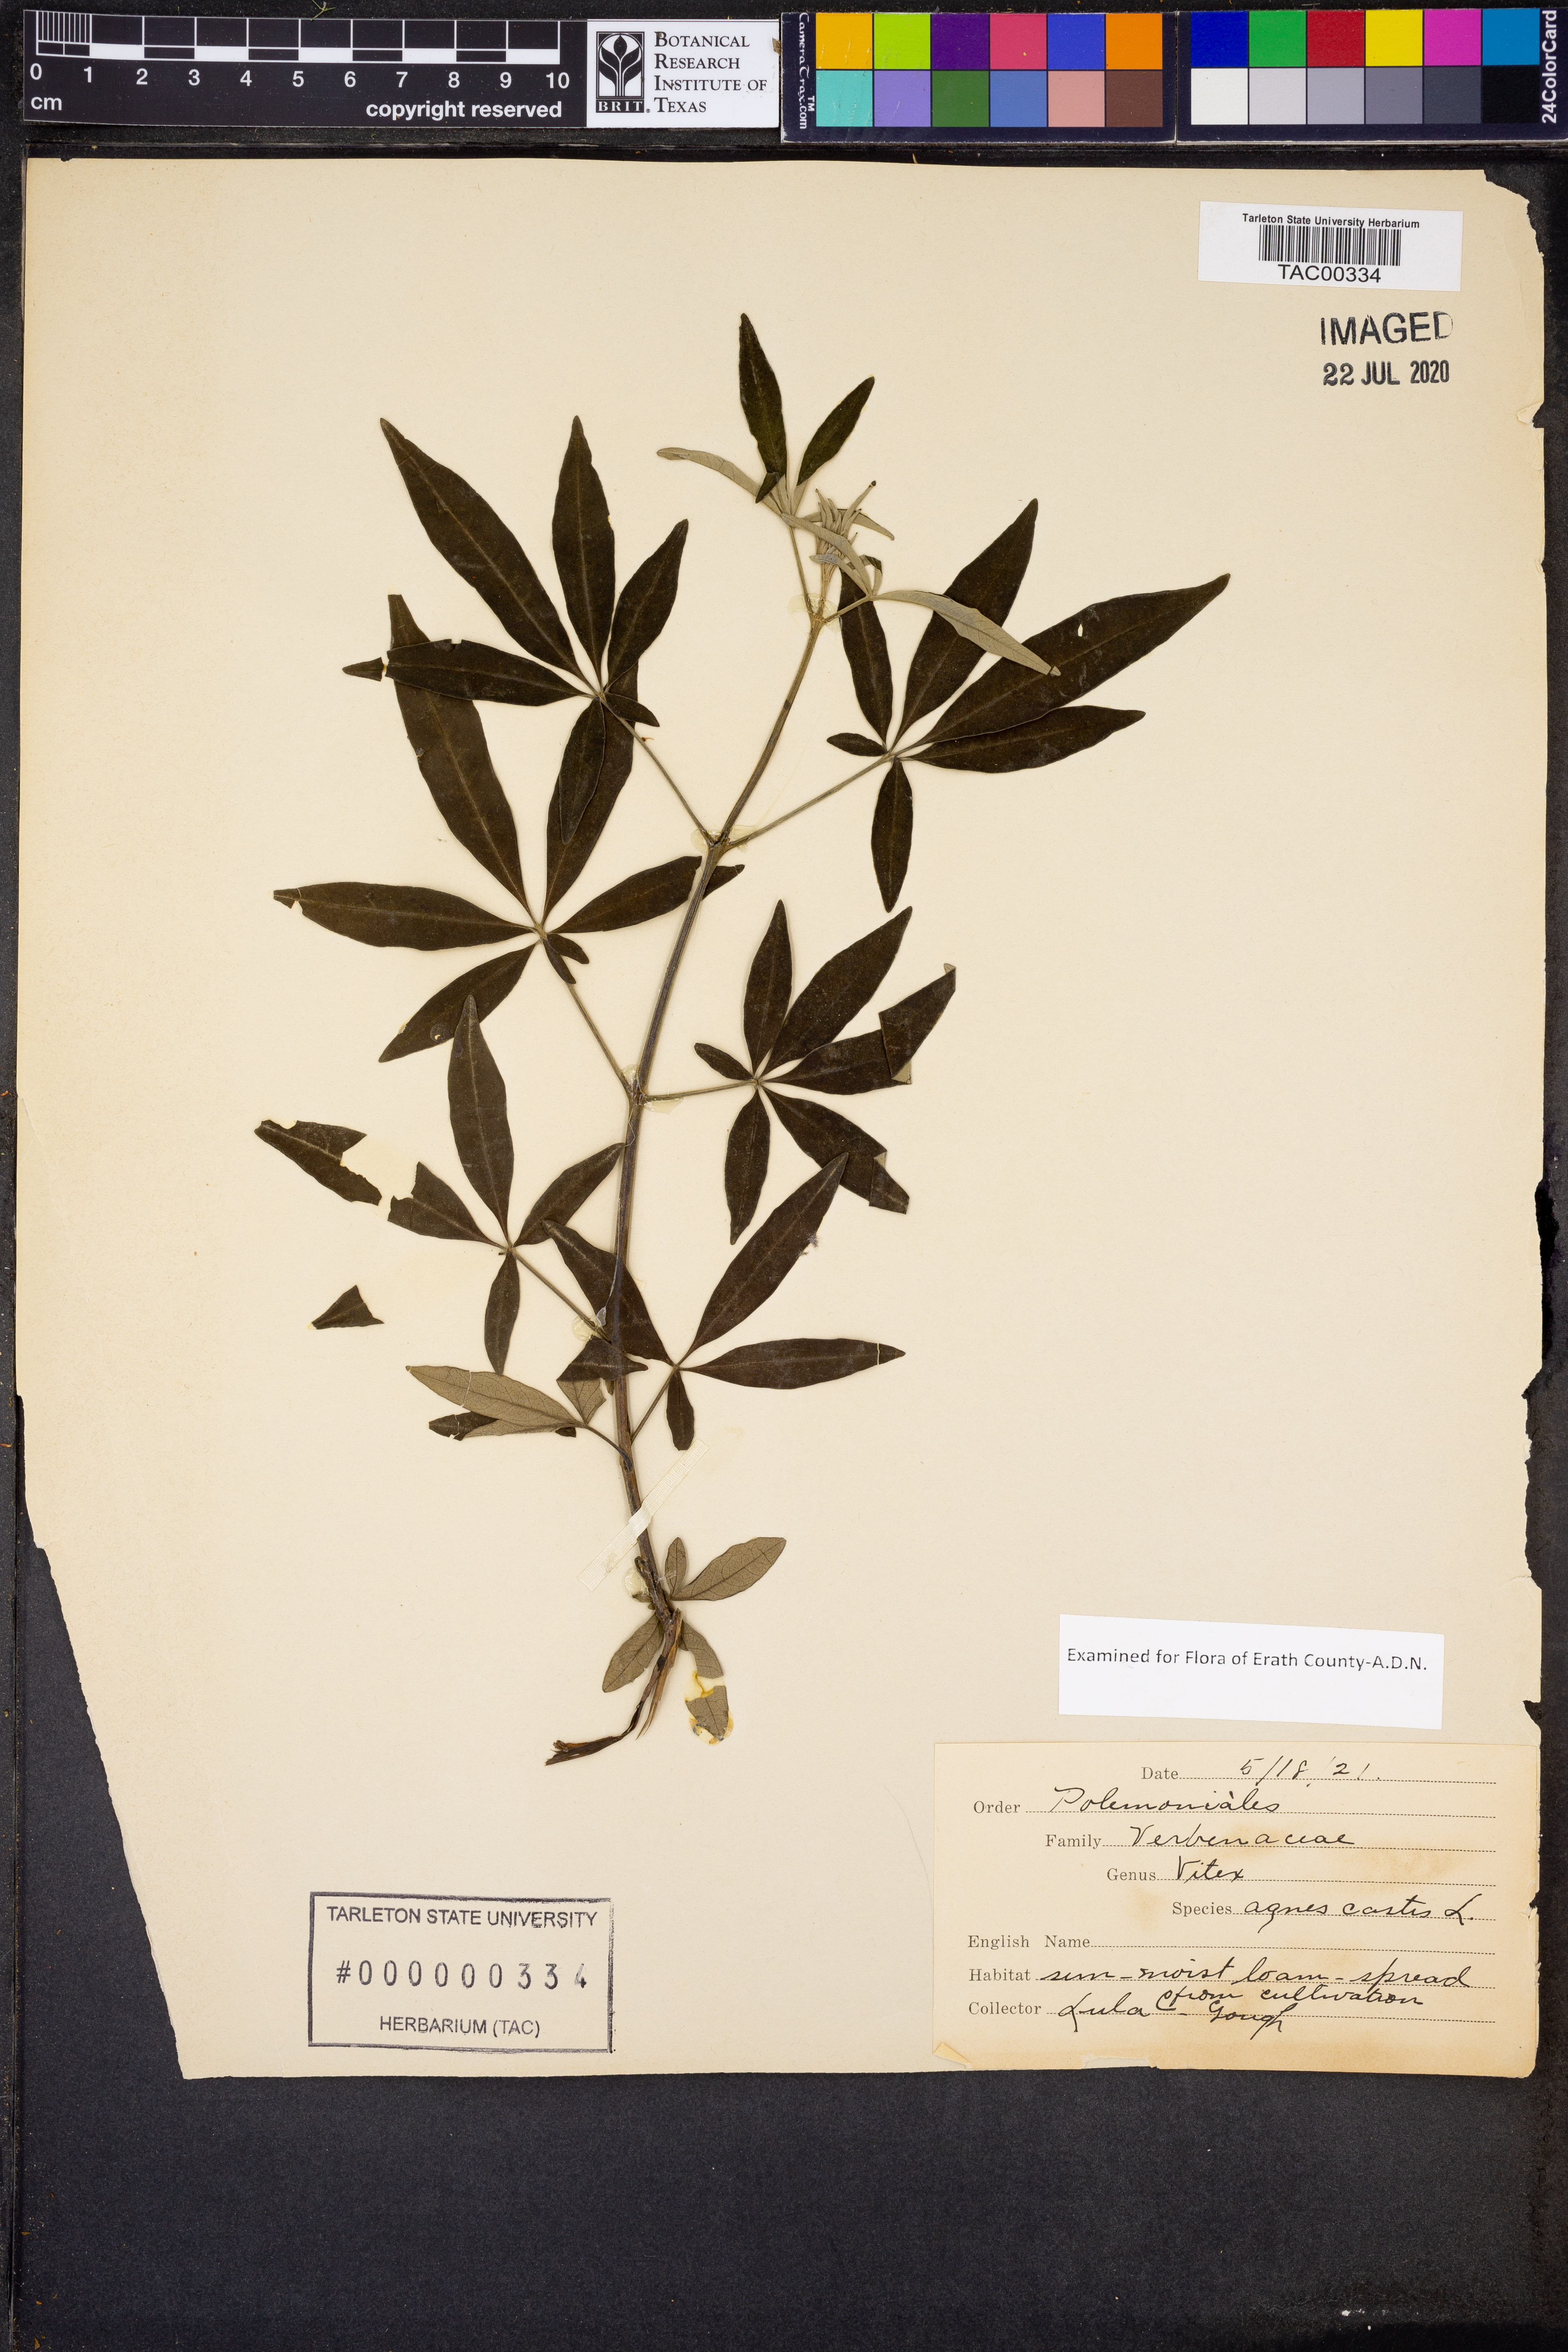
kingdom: Plantae
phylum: Tracheophyta
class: Magnoliopsida
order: Lamiales
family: Lamiaceae
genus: Vitex
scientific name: Vitex agnus-castus
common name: Chasteberry
